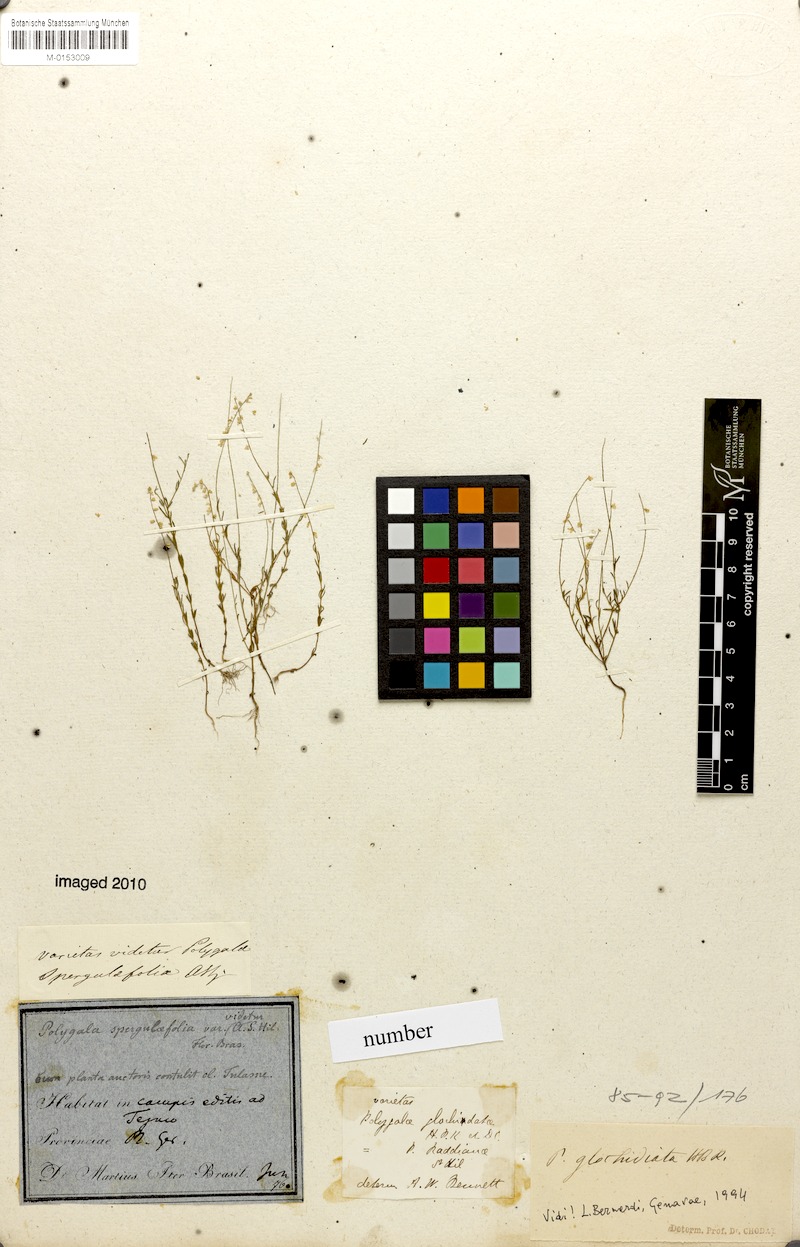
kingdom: Plantae
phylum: Tracheophyta
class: Magnoliopsida
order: Fabales
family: Polygalaceae
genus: Polygala
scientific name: Polygala glochidiata
